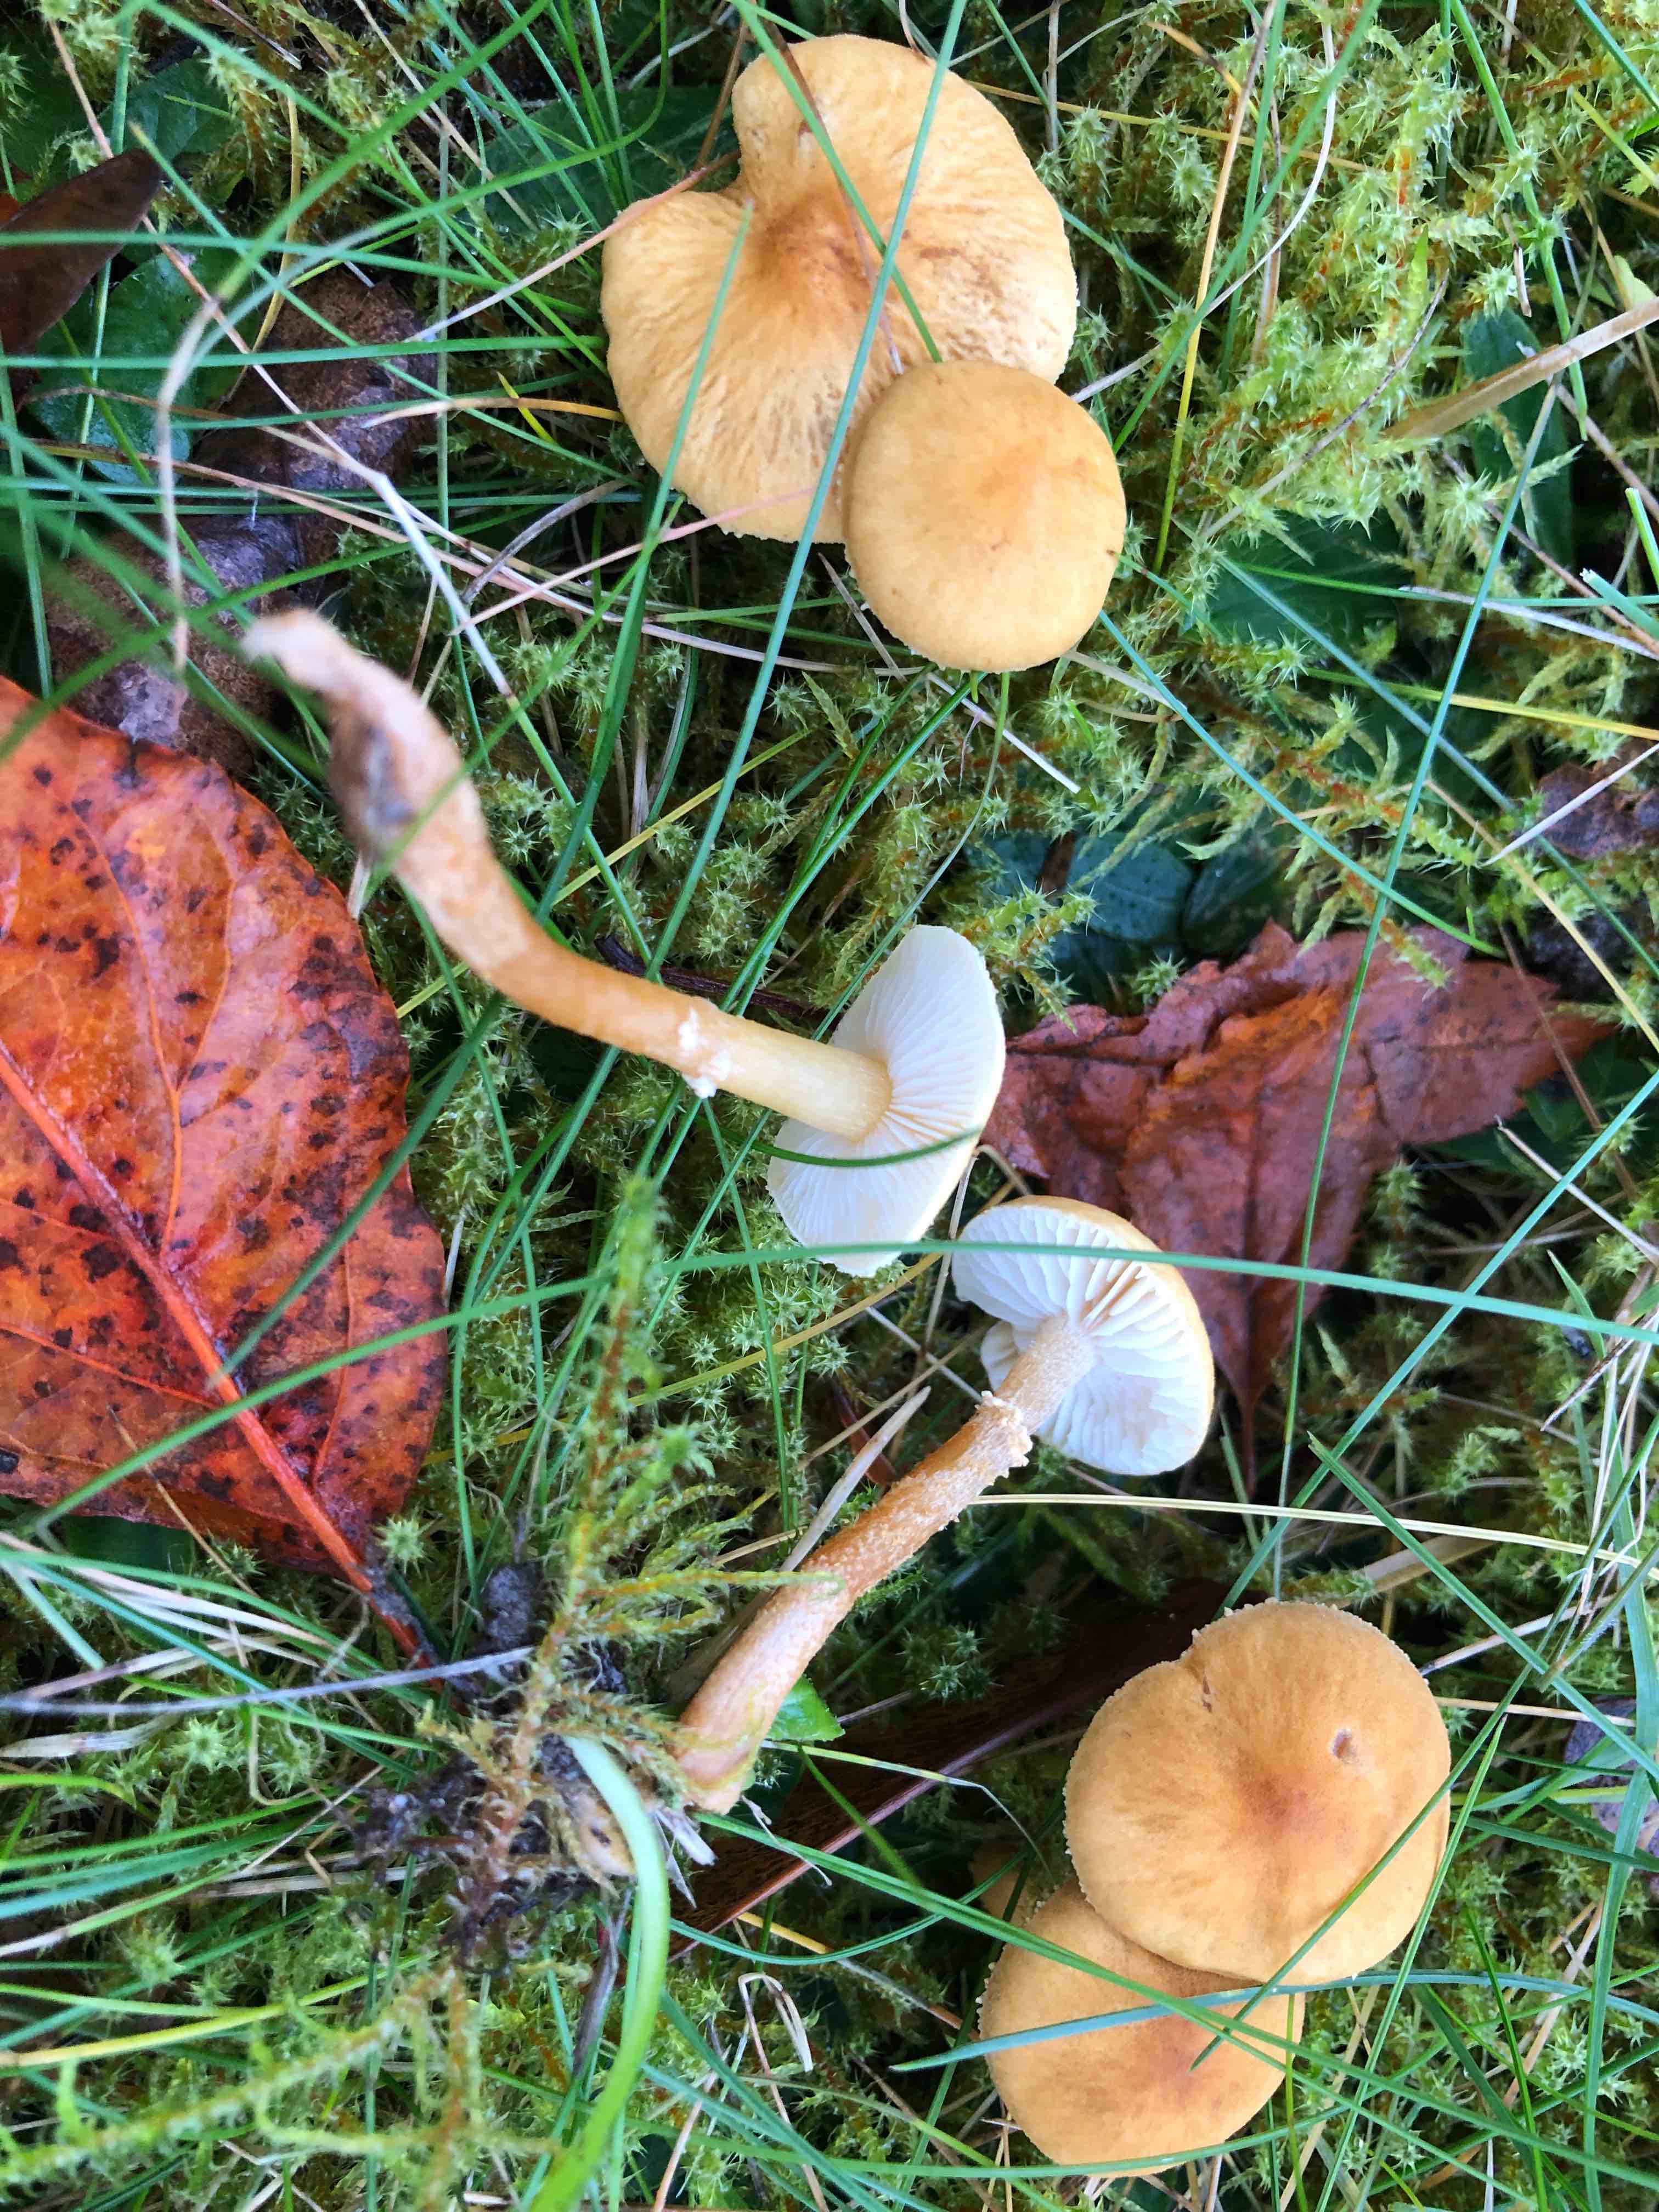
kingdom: Fungi
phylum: Basidiomycota
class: Agaricomycetes
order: Agaricales
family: Tricholomataceae
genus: Cystoderma
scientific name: Cystoderma amianthinum
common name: okkergul grynhat
